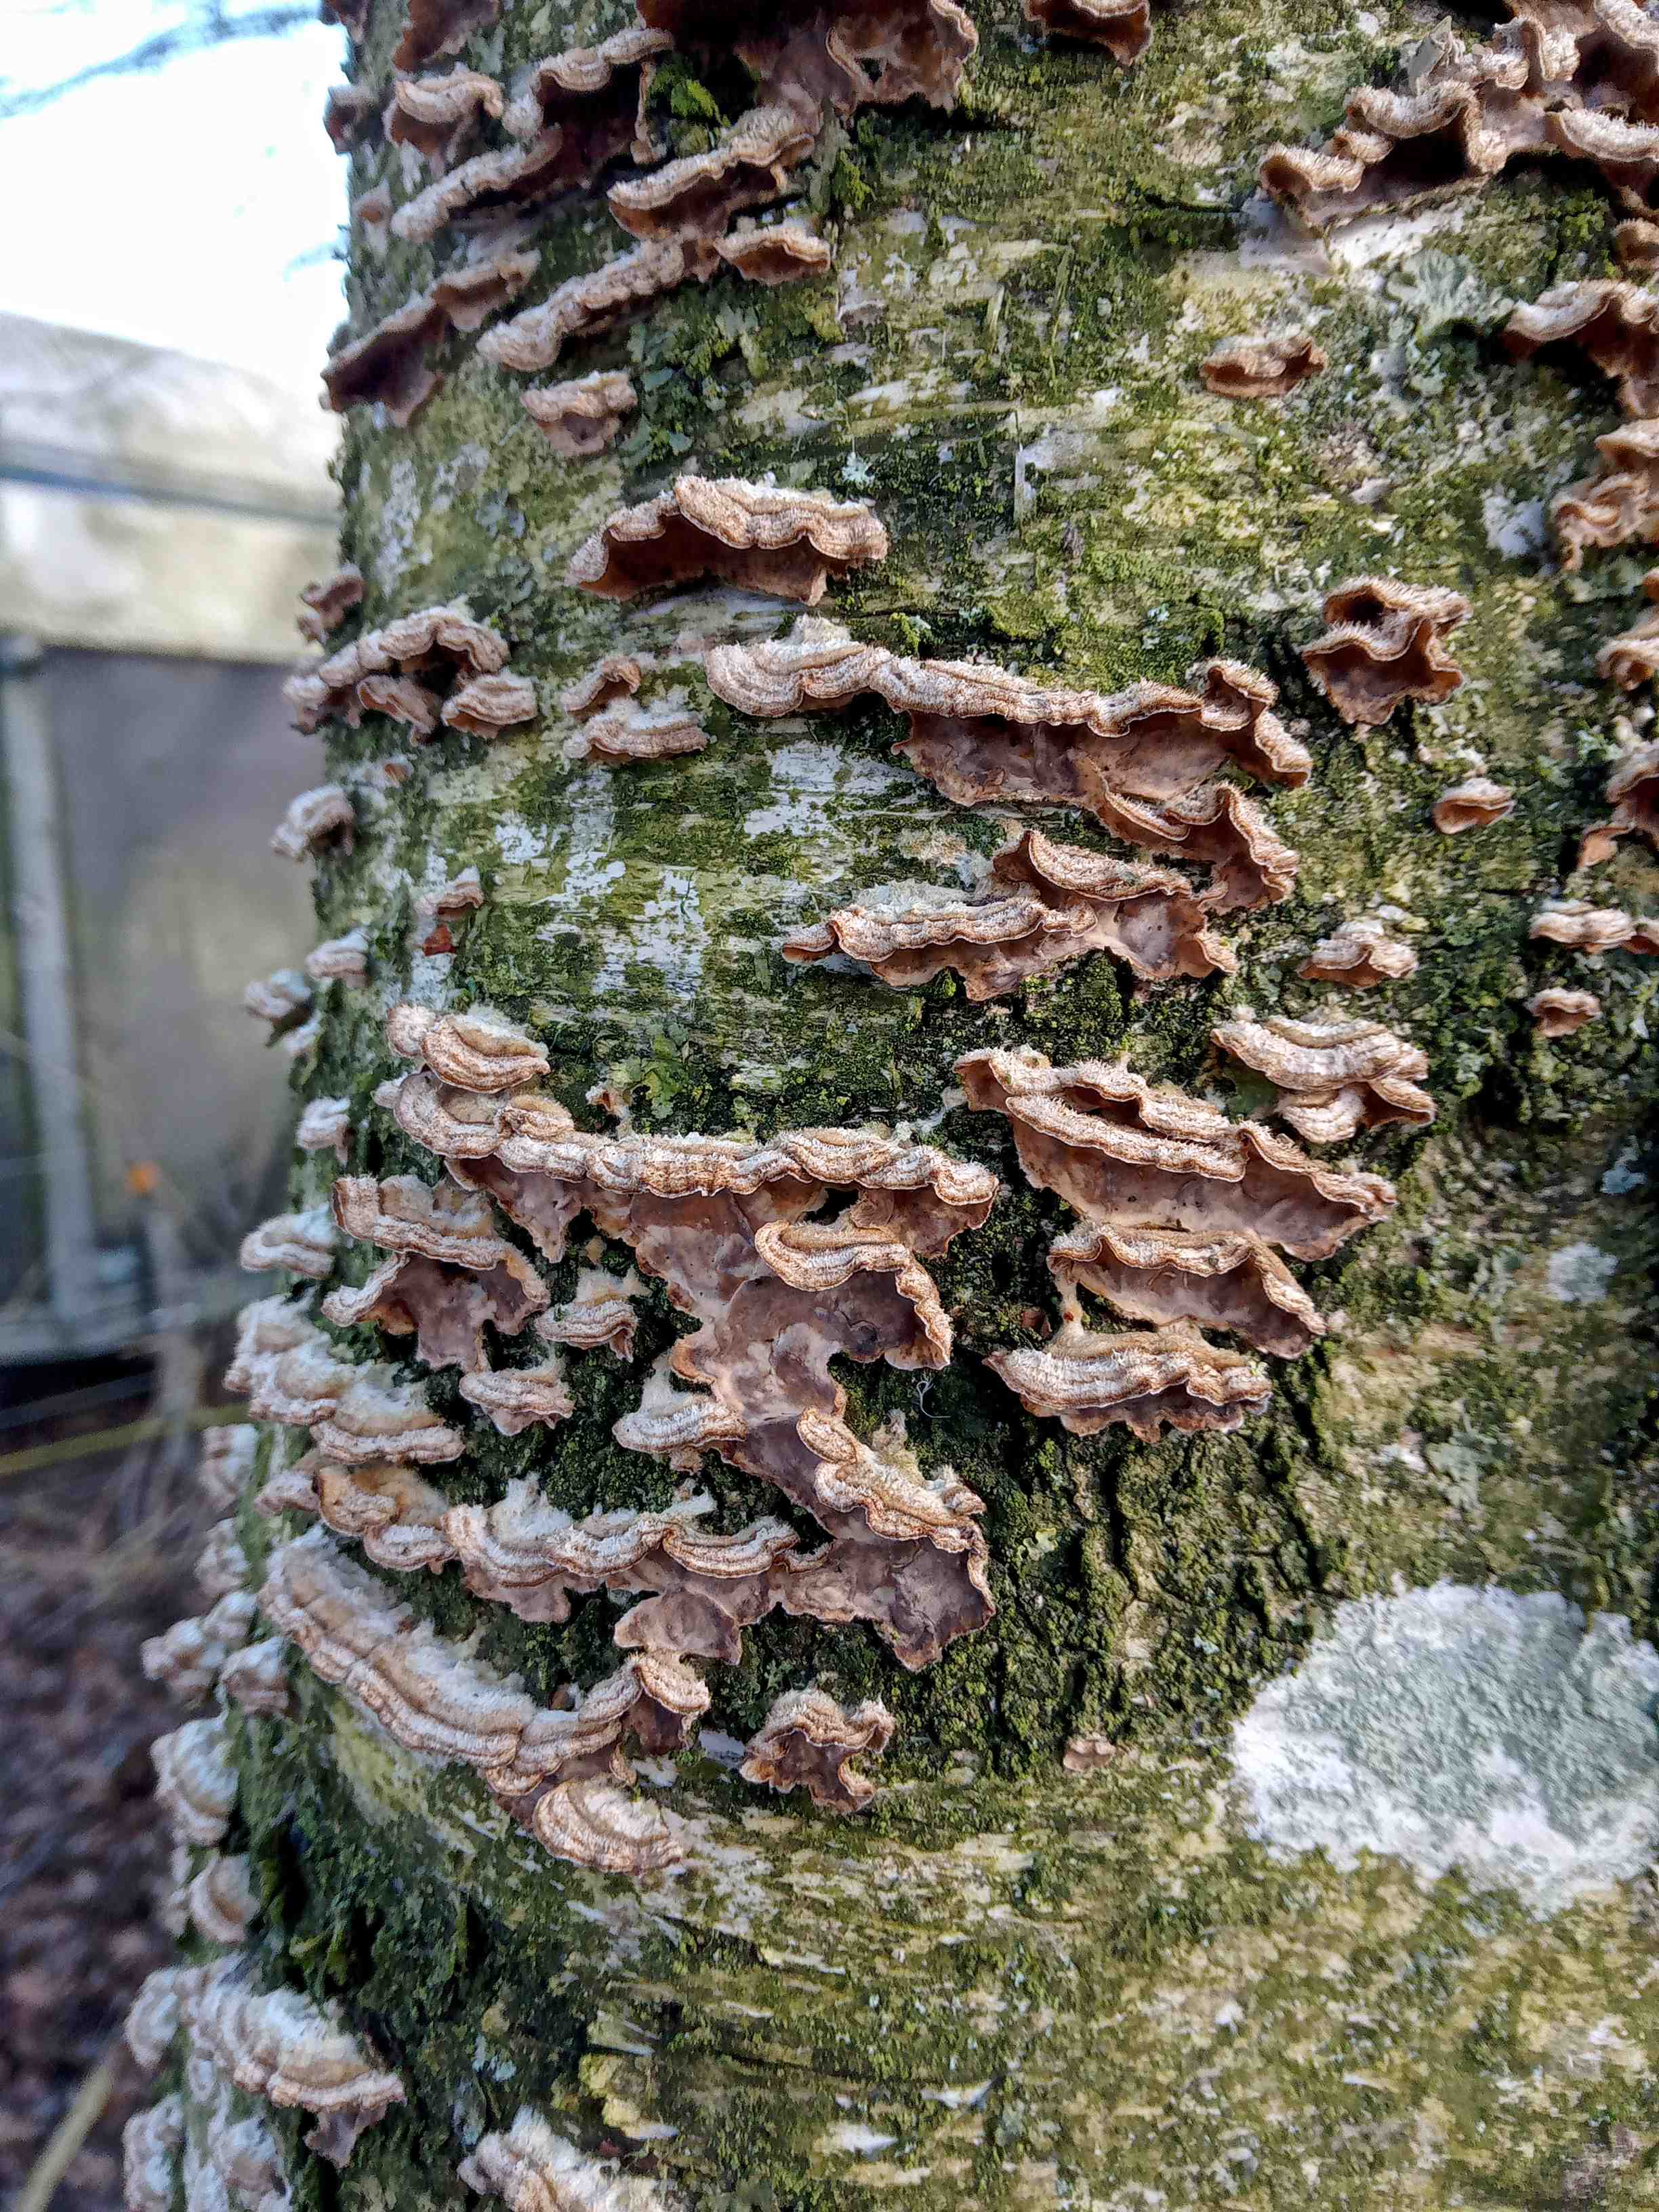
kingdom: Fungi
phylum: Basidiomycota
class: Agaricomycetes
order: Agaricales
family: Cyphellaceae
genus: Chondrostereum
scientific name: Chondrostereum purpureum
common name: purpurlædersvamp
